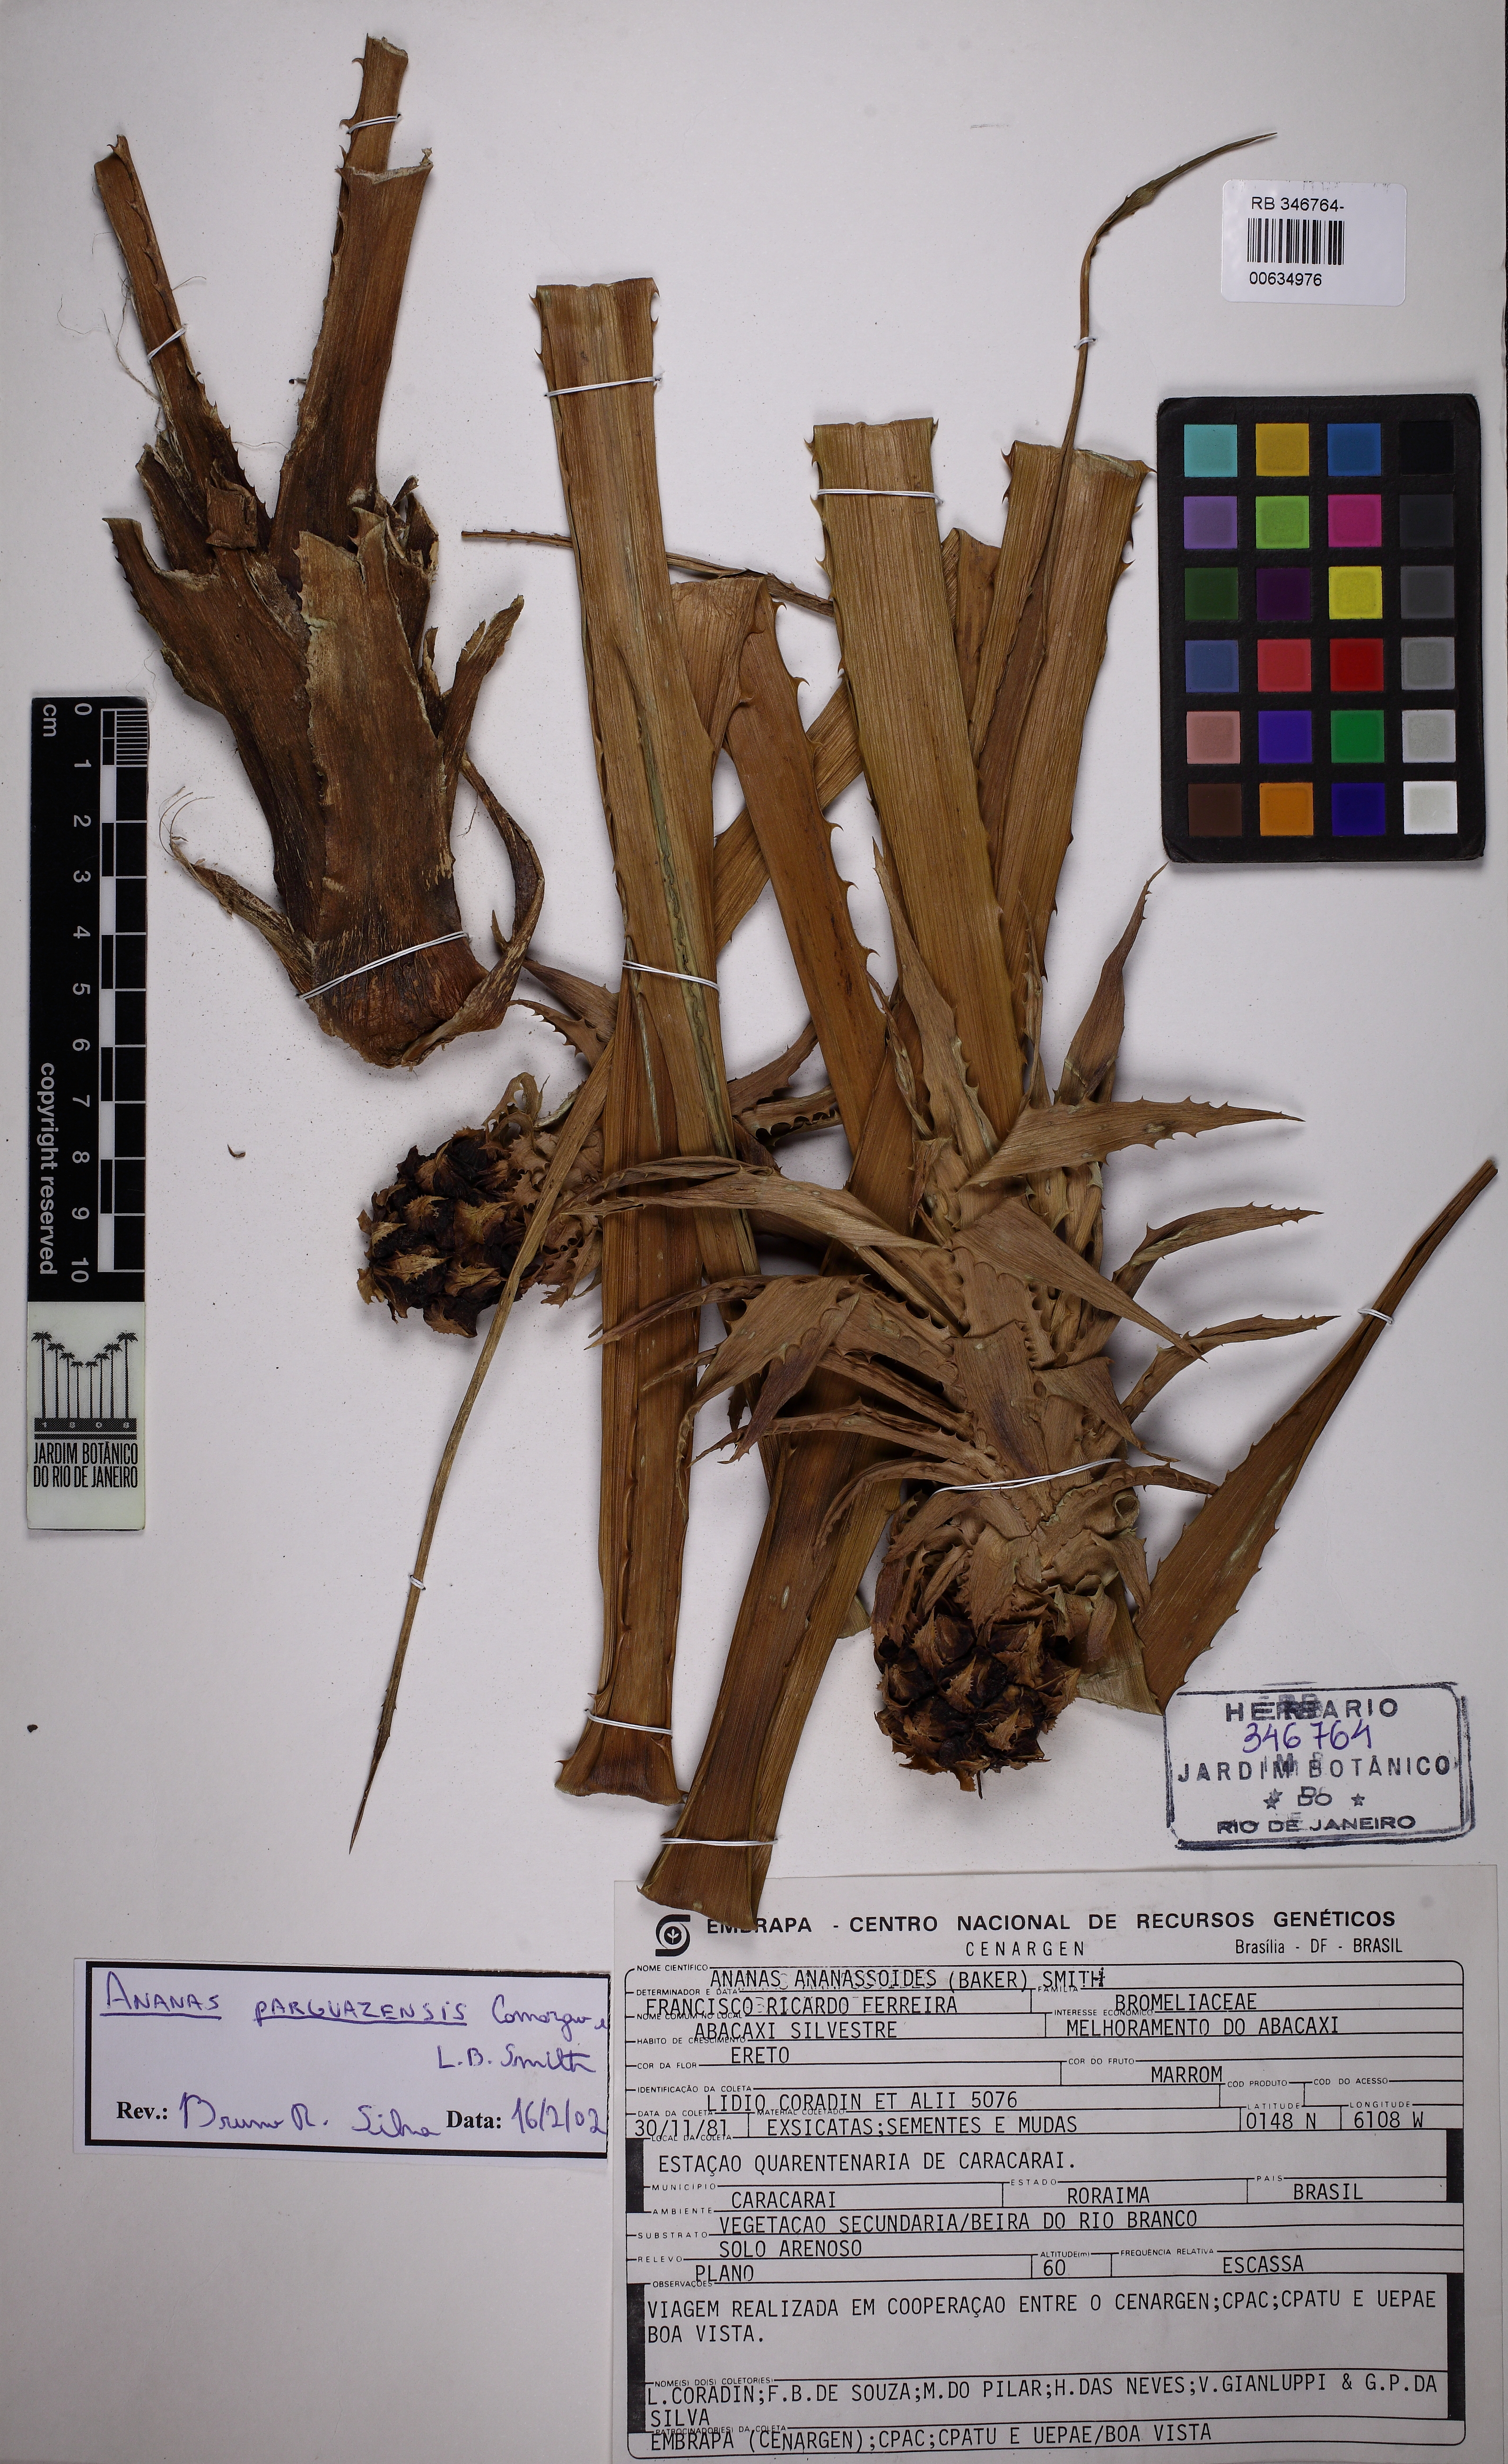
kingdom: Plantae
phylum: Tracheophyta
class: Liliopsida
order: Poales
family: Bromeliaceae
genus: Ananas
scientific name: Ananas comosus
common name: Pineapple
